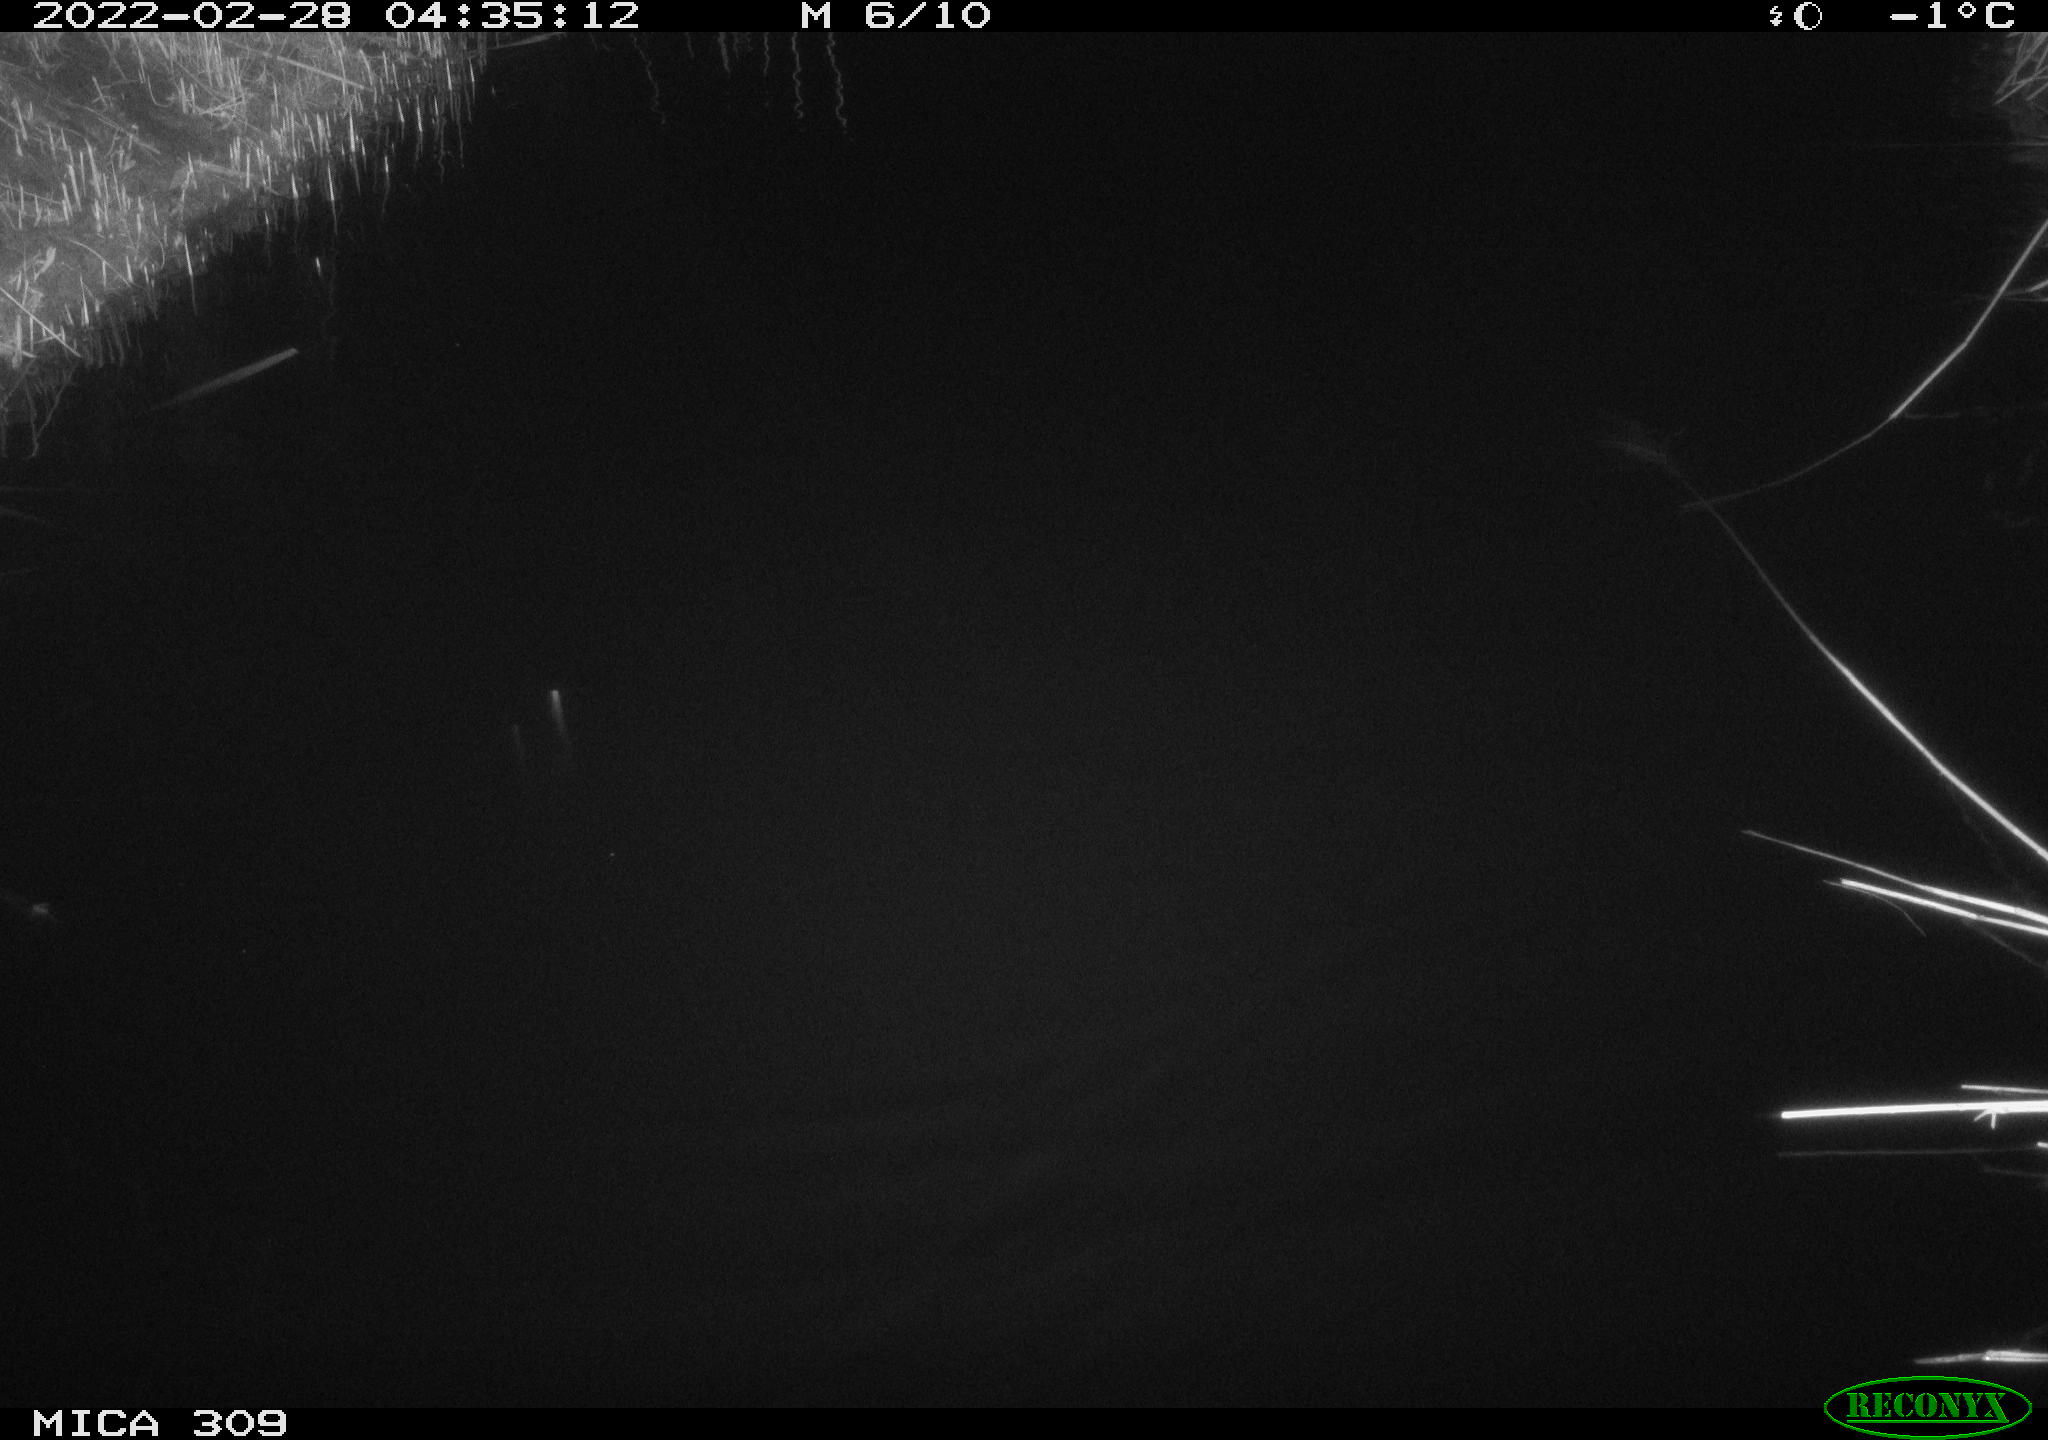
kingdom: Animalia
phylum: Chordata
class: Aves
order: Anseriformes
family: Anatidae
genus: Anas
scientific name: Anas platyrhynchos
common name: Mallard
